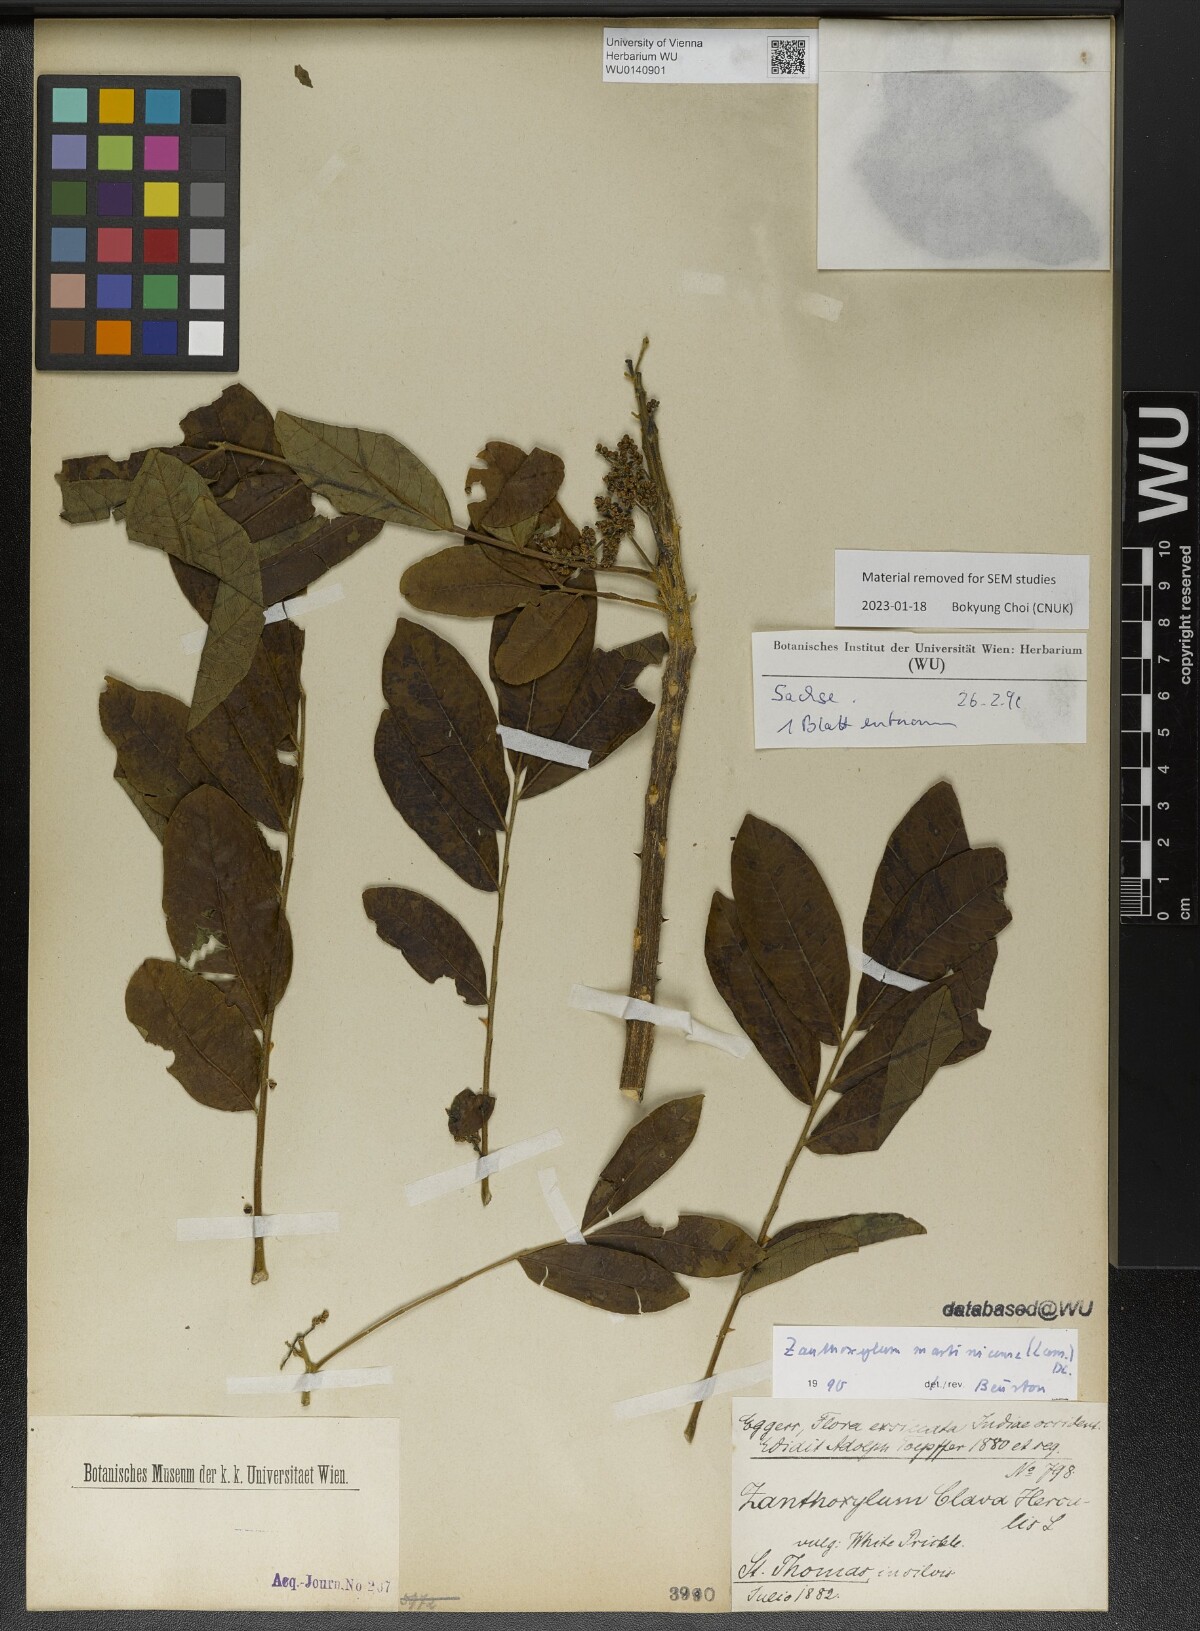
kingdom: Plantae
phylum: Tracheophyta
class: Magnoliopsida
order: Sapindales
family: Rutaceae
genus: Zanthoxylum
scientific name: Zanthoxylum martinicense
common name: Yellow prickle
